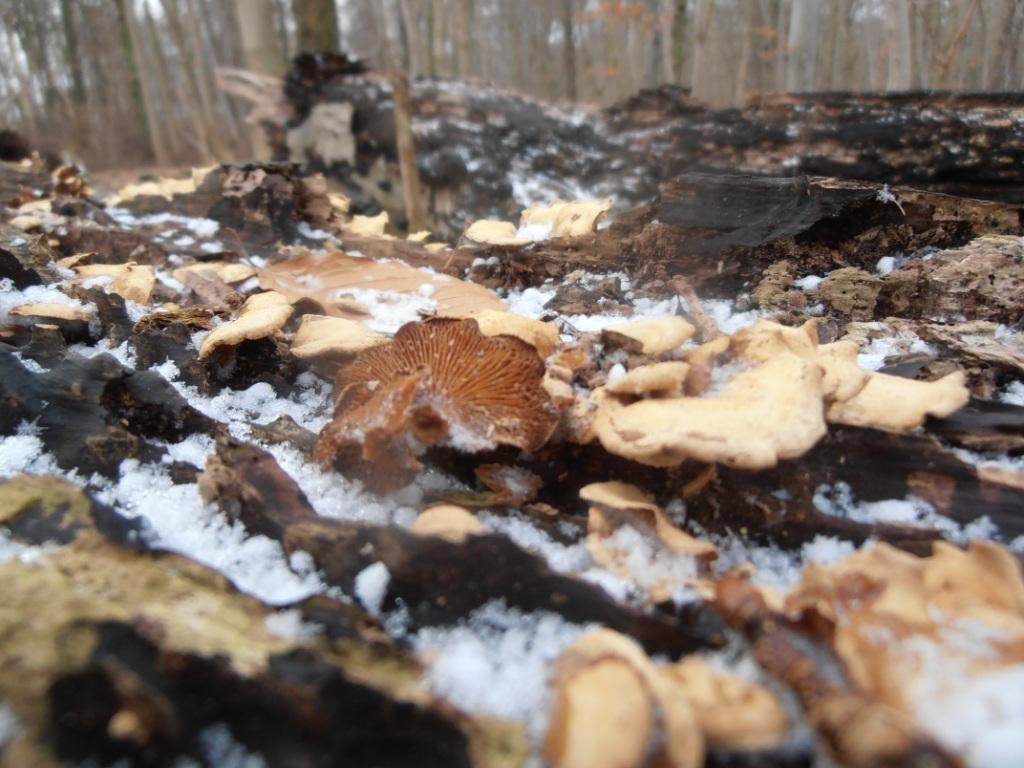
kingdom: Fungi
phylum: Basidiomycota
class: Agaricomycetes
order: Agaricales
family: Mycenaceae
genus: Panellus
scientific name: Panellus stipticus
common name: kliddet epaulethat
